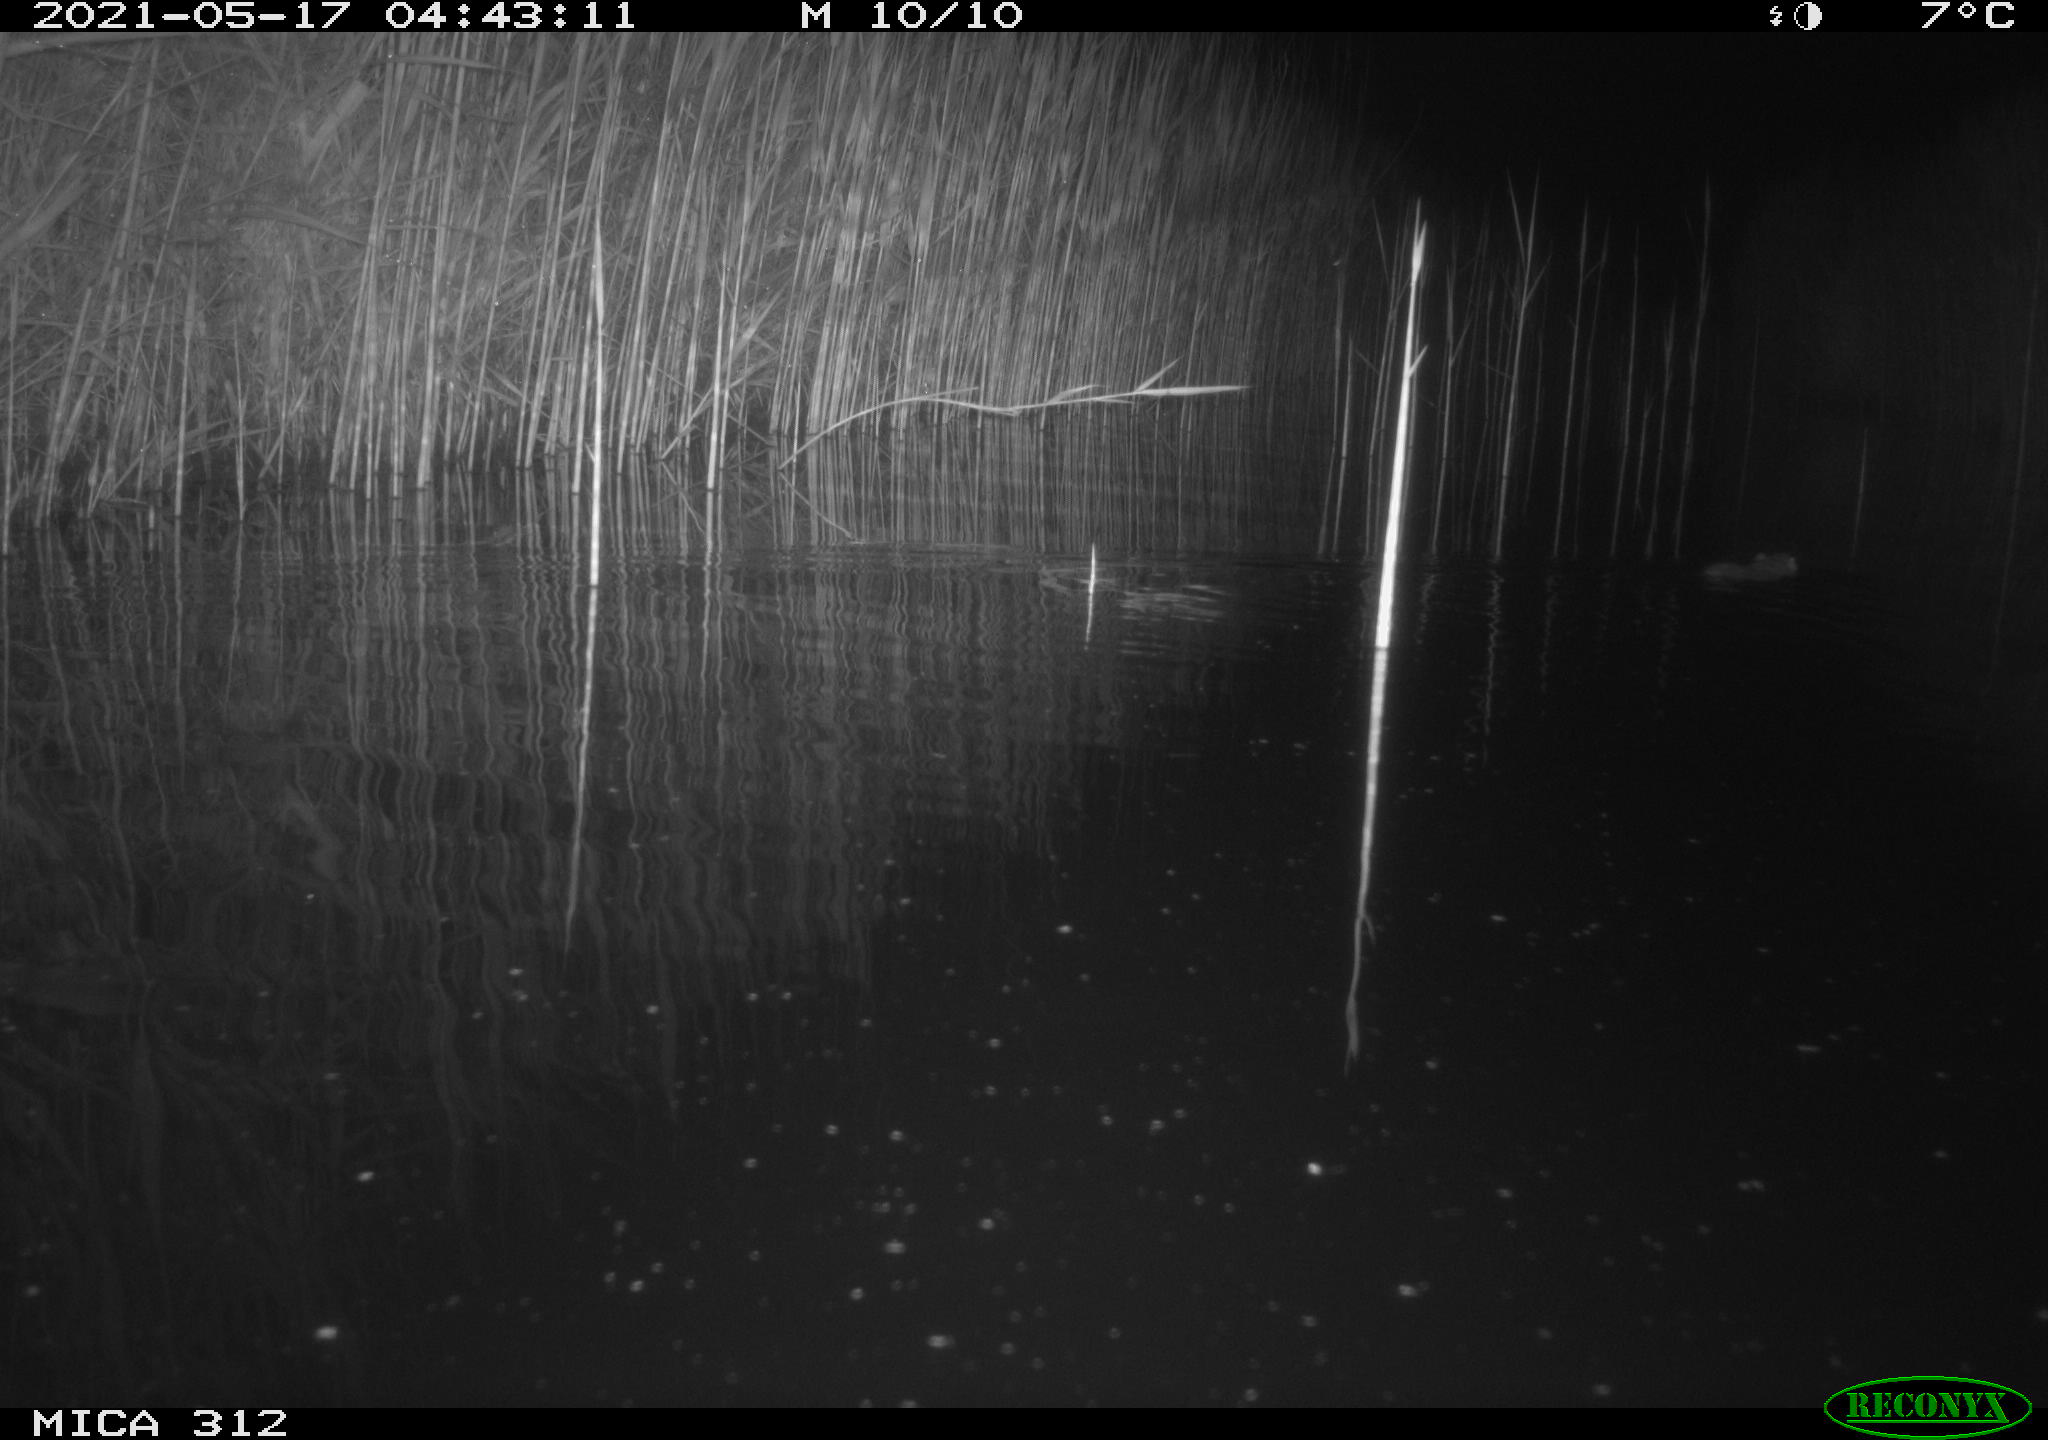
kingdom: Animalia
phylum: Chordata
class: Mammalia
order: Rodentia
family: Muridae
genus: Rattus
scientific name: Rattus norvegicus
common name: Brown rat
